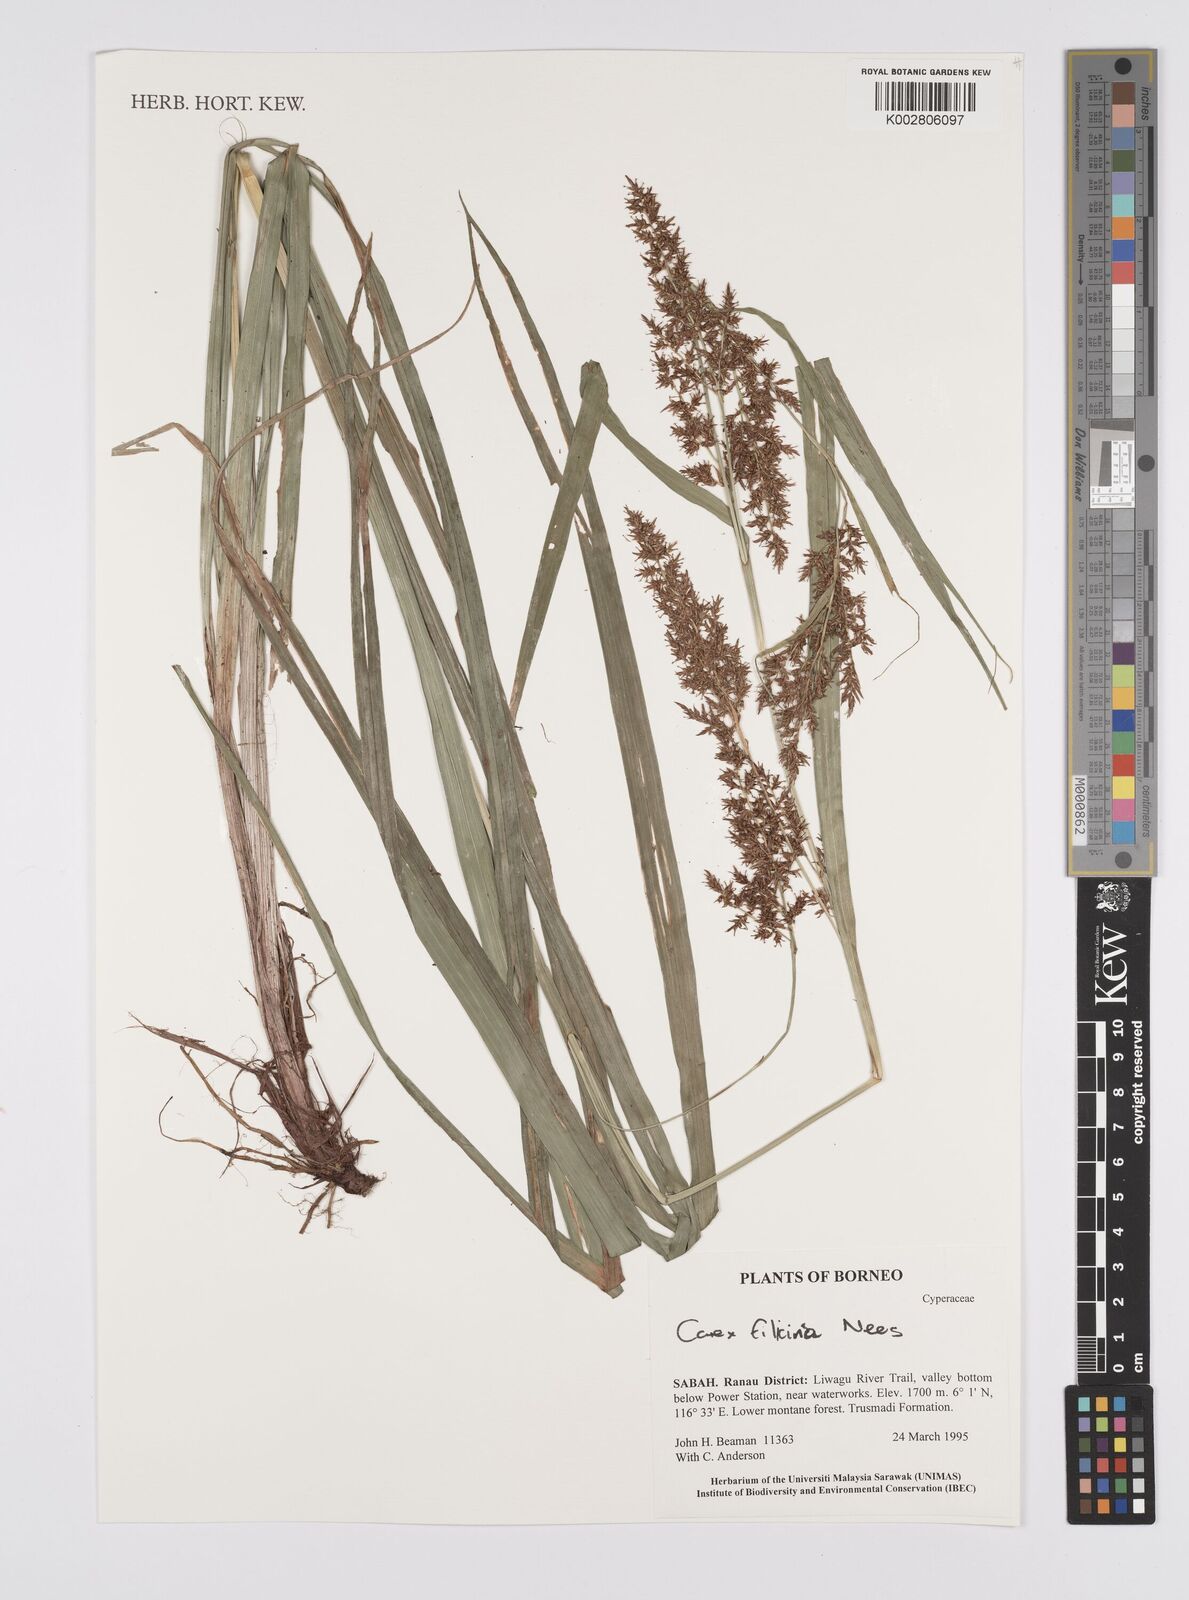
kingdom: Plantae
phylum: Tracheophyta
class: Liliopsida
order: Poales
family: Cyperaceae
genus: Carex
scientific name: Carex filicina
